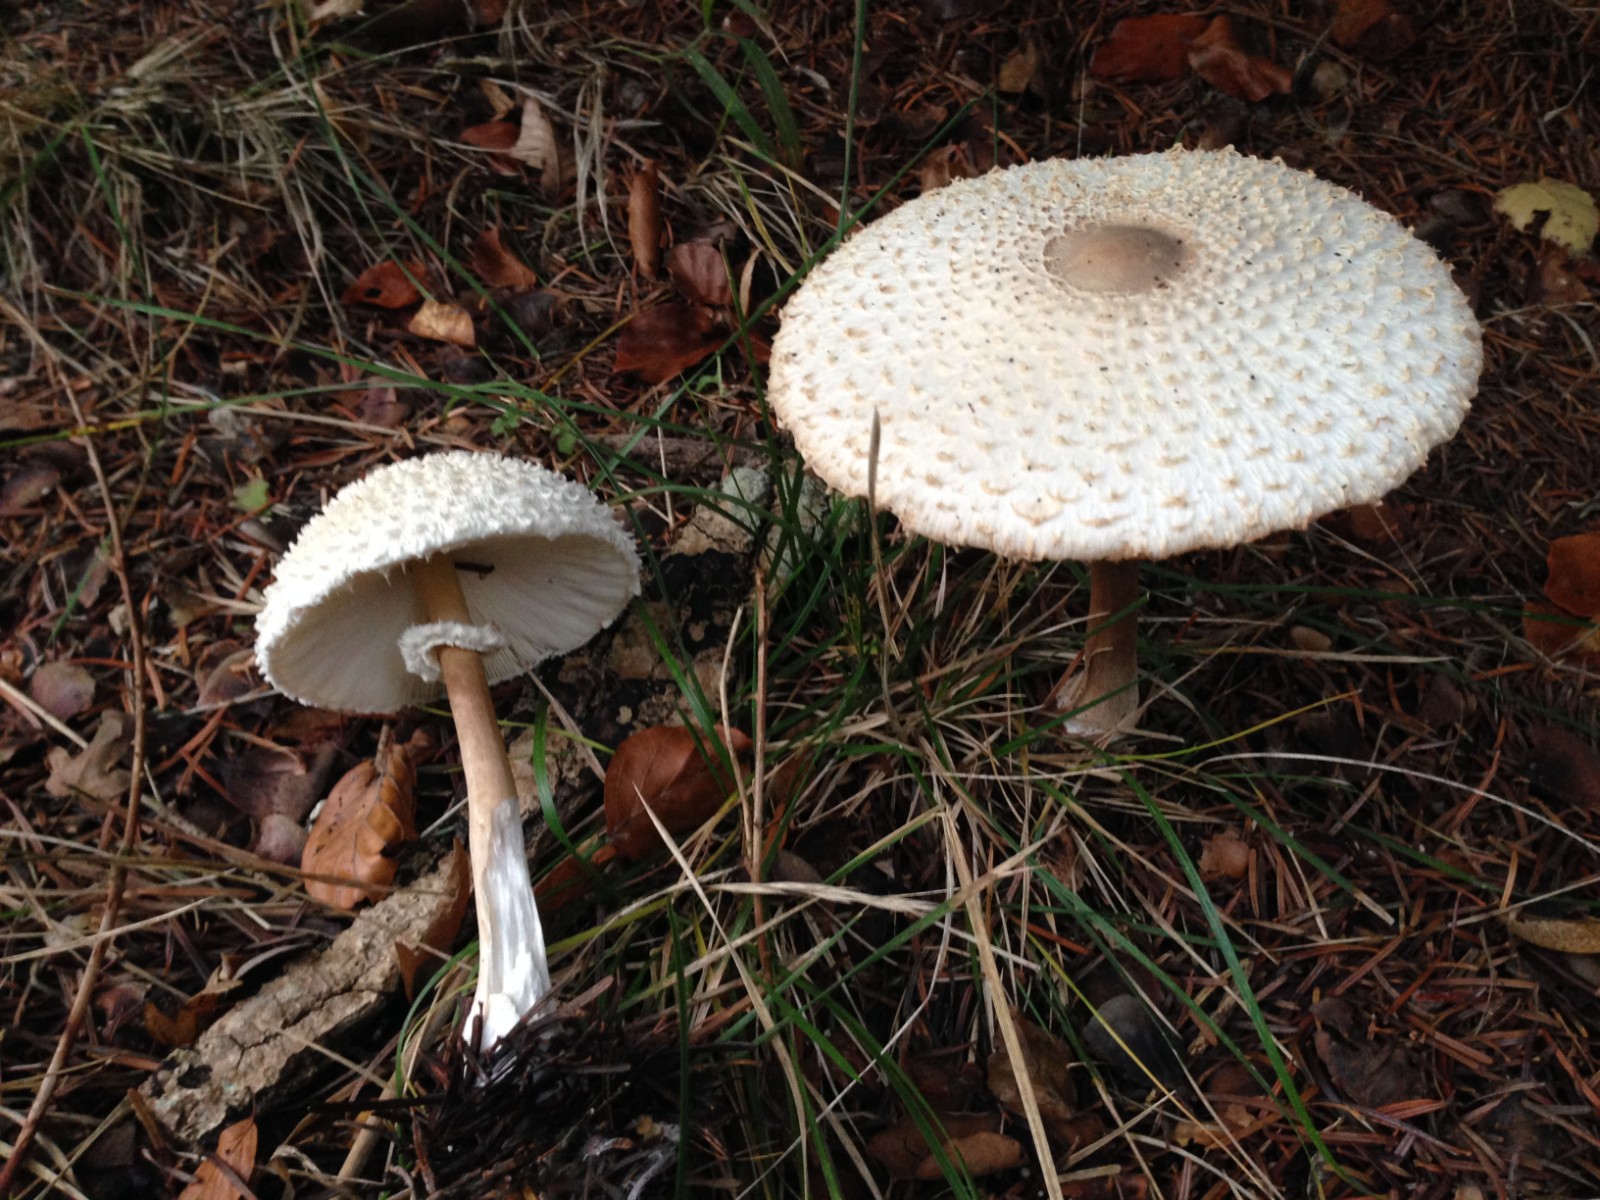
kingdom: Fungi
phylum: Basidiomycota
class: Agaricomycetes
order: Agaricales
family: Agaricaceae
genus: Leucoagaricus
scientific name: Leucoagaricus nympharum
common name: gran-silkehat
